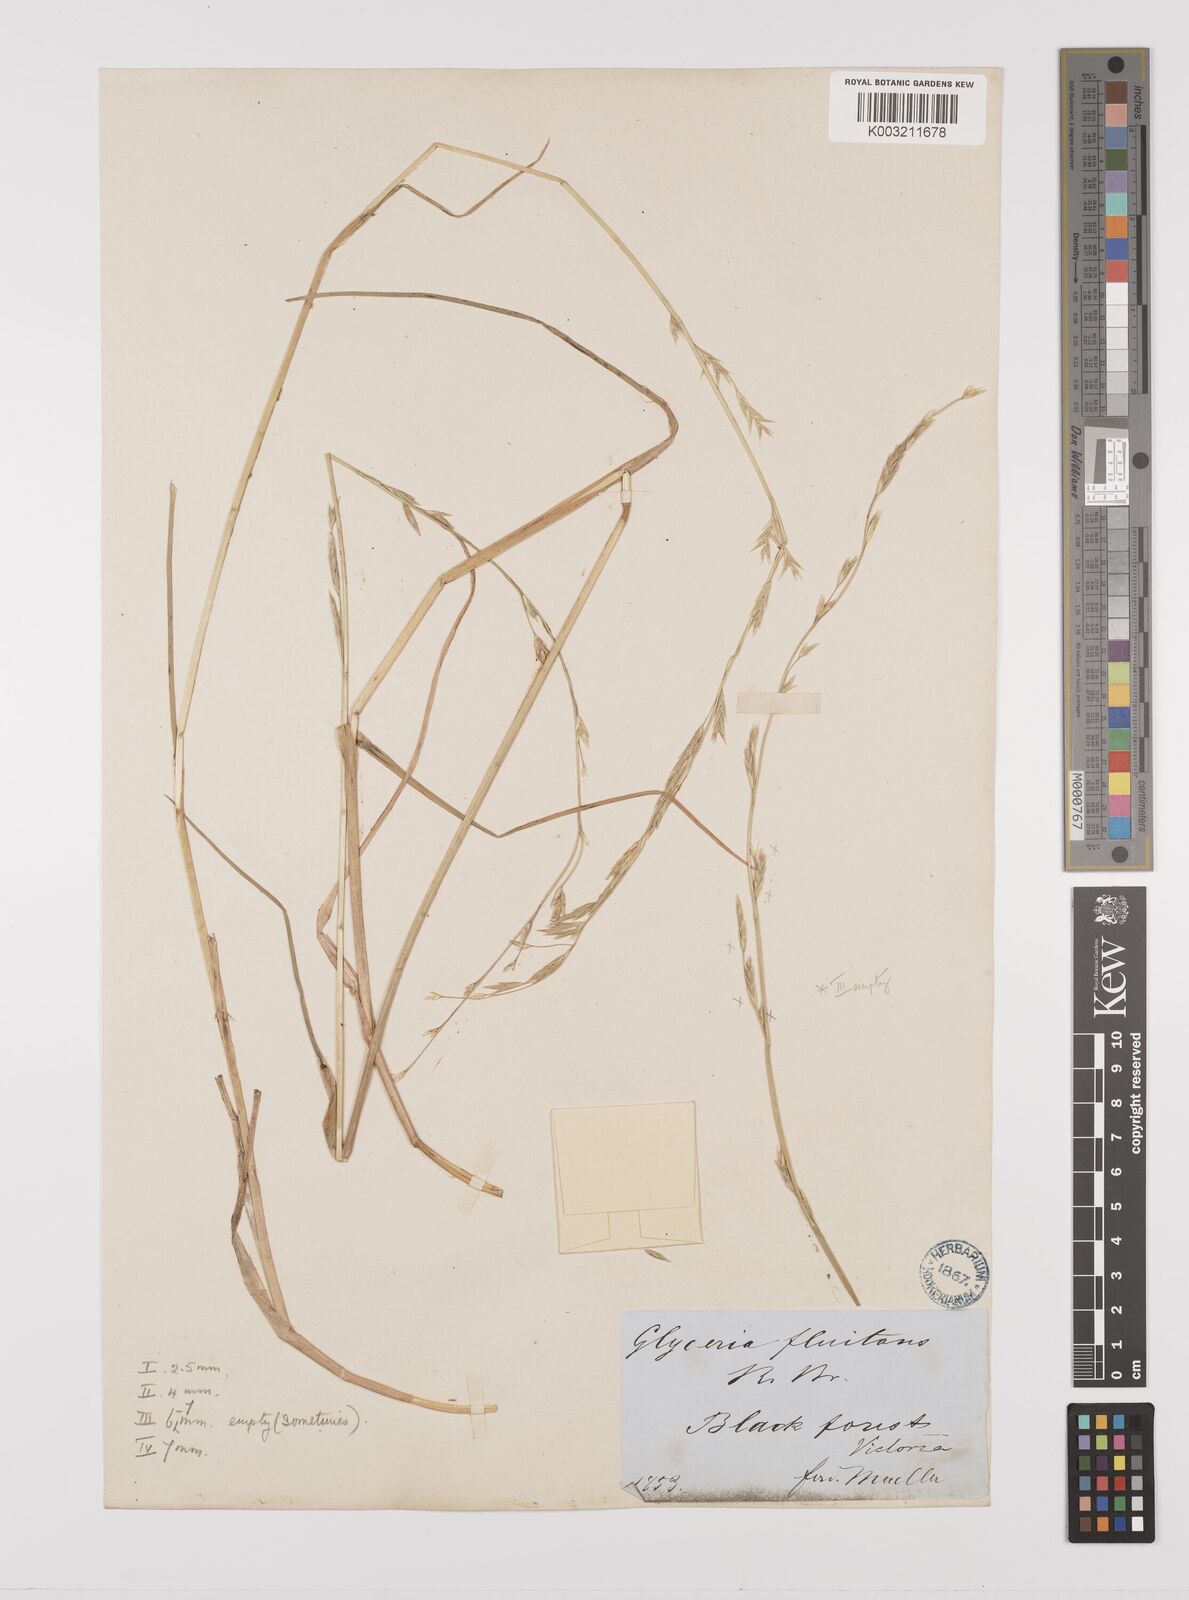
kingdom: Plantae
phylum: Tracheophyta
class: Liliopsida
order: Poales
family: Poaceae
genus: Glyceria
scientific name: Glyceria australis
